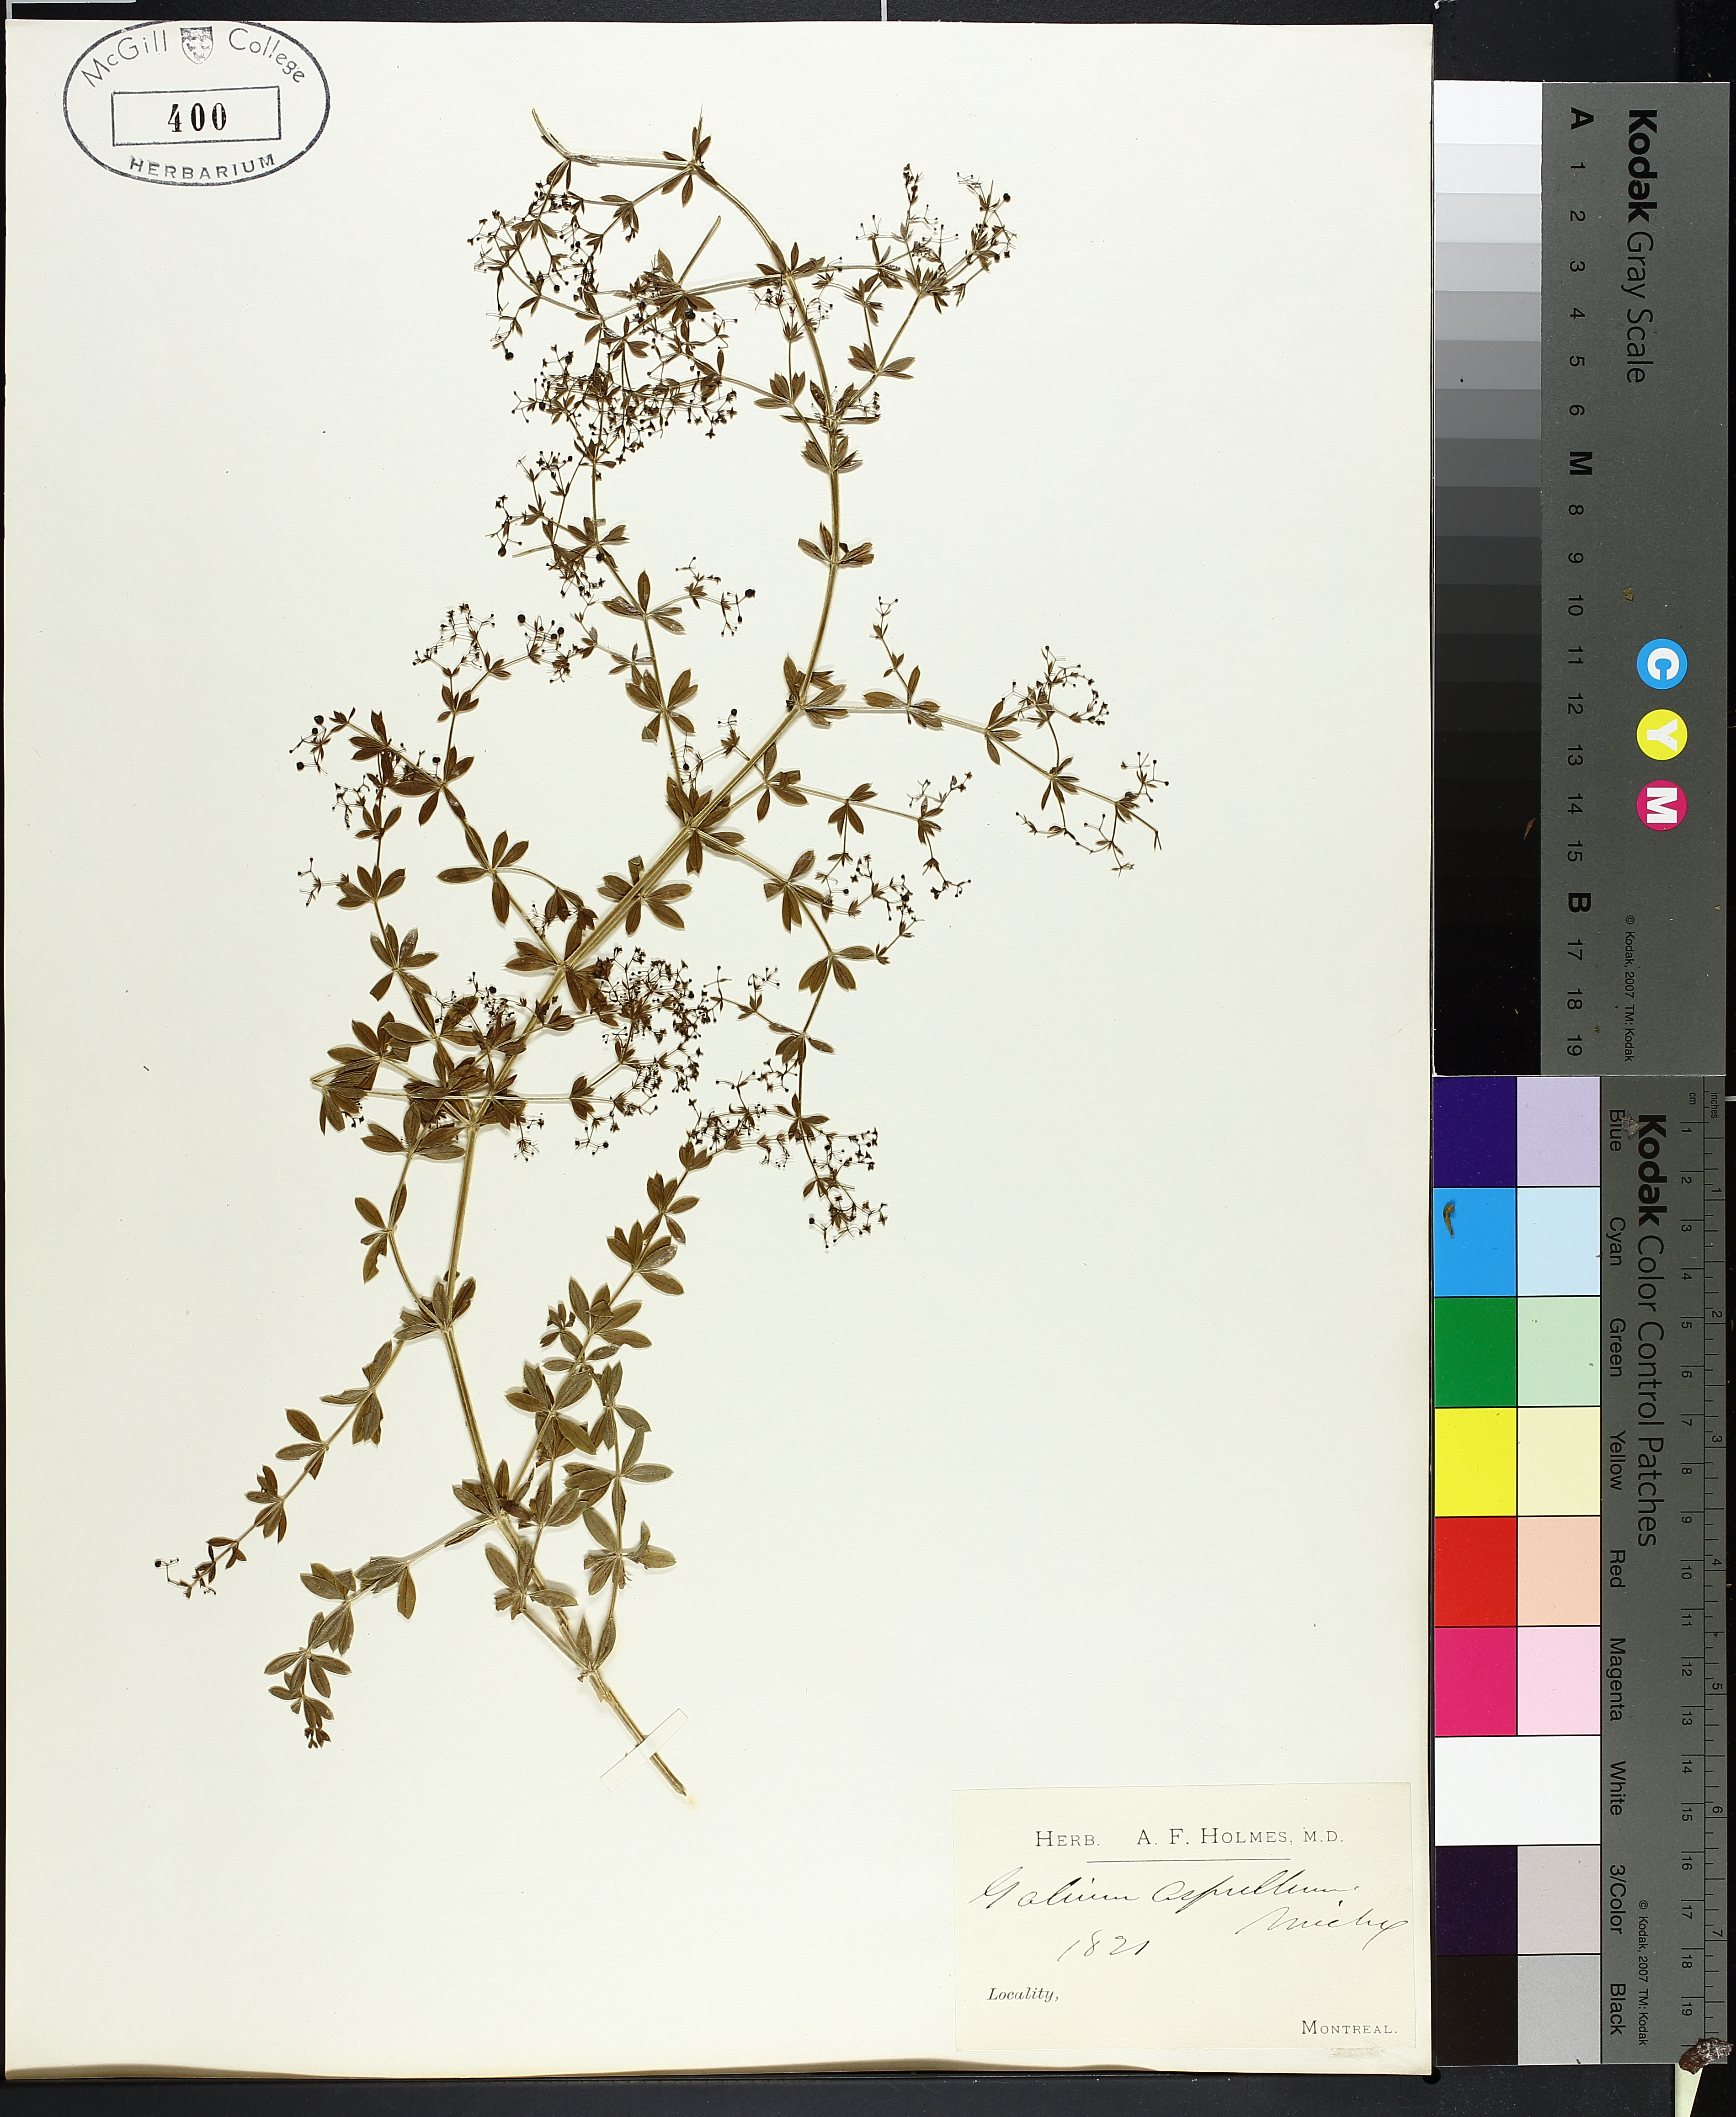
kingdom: Plantae
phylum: Tracheophyta
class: Magnoliopsida
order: Gentianales
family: Rubiaceae
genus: Galium
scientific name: Galium asprellum
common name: Rough bedstraw
